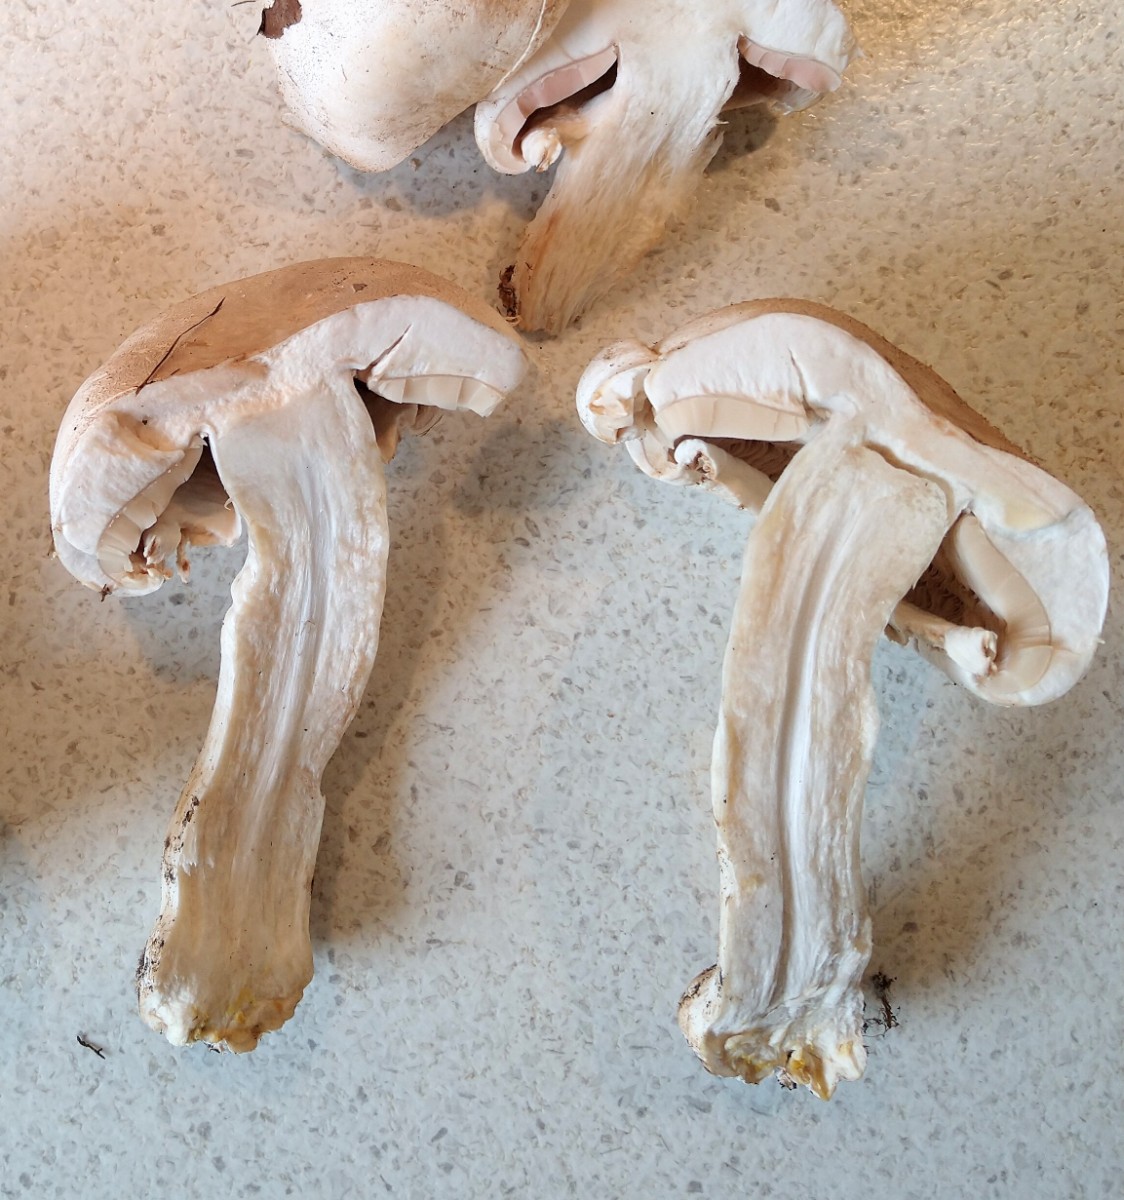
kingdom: Fungi
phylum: Basidiomycota
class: Agaricomycetes
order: Agaricales
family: Agaricaceae
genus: Agaricus
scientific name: Agaricus xanthodermus
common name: karbol-champignon
